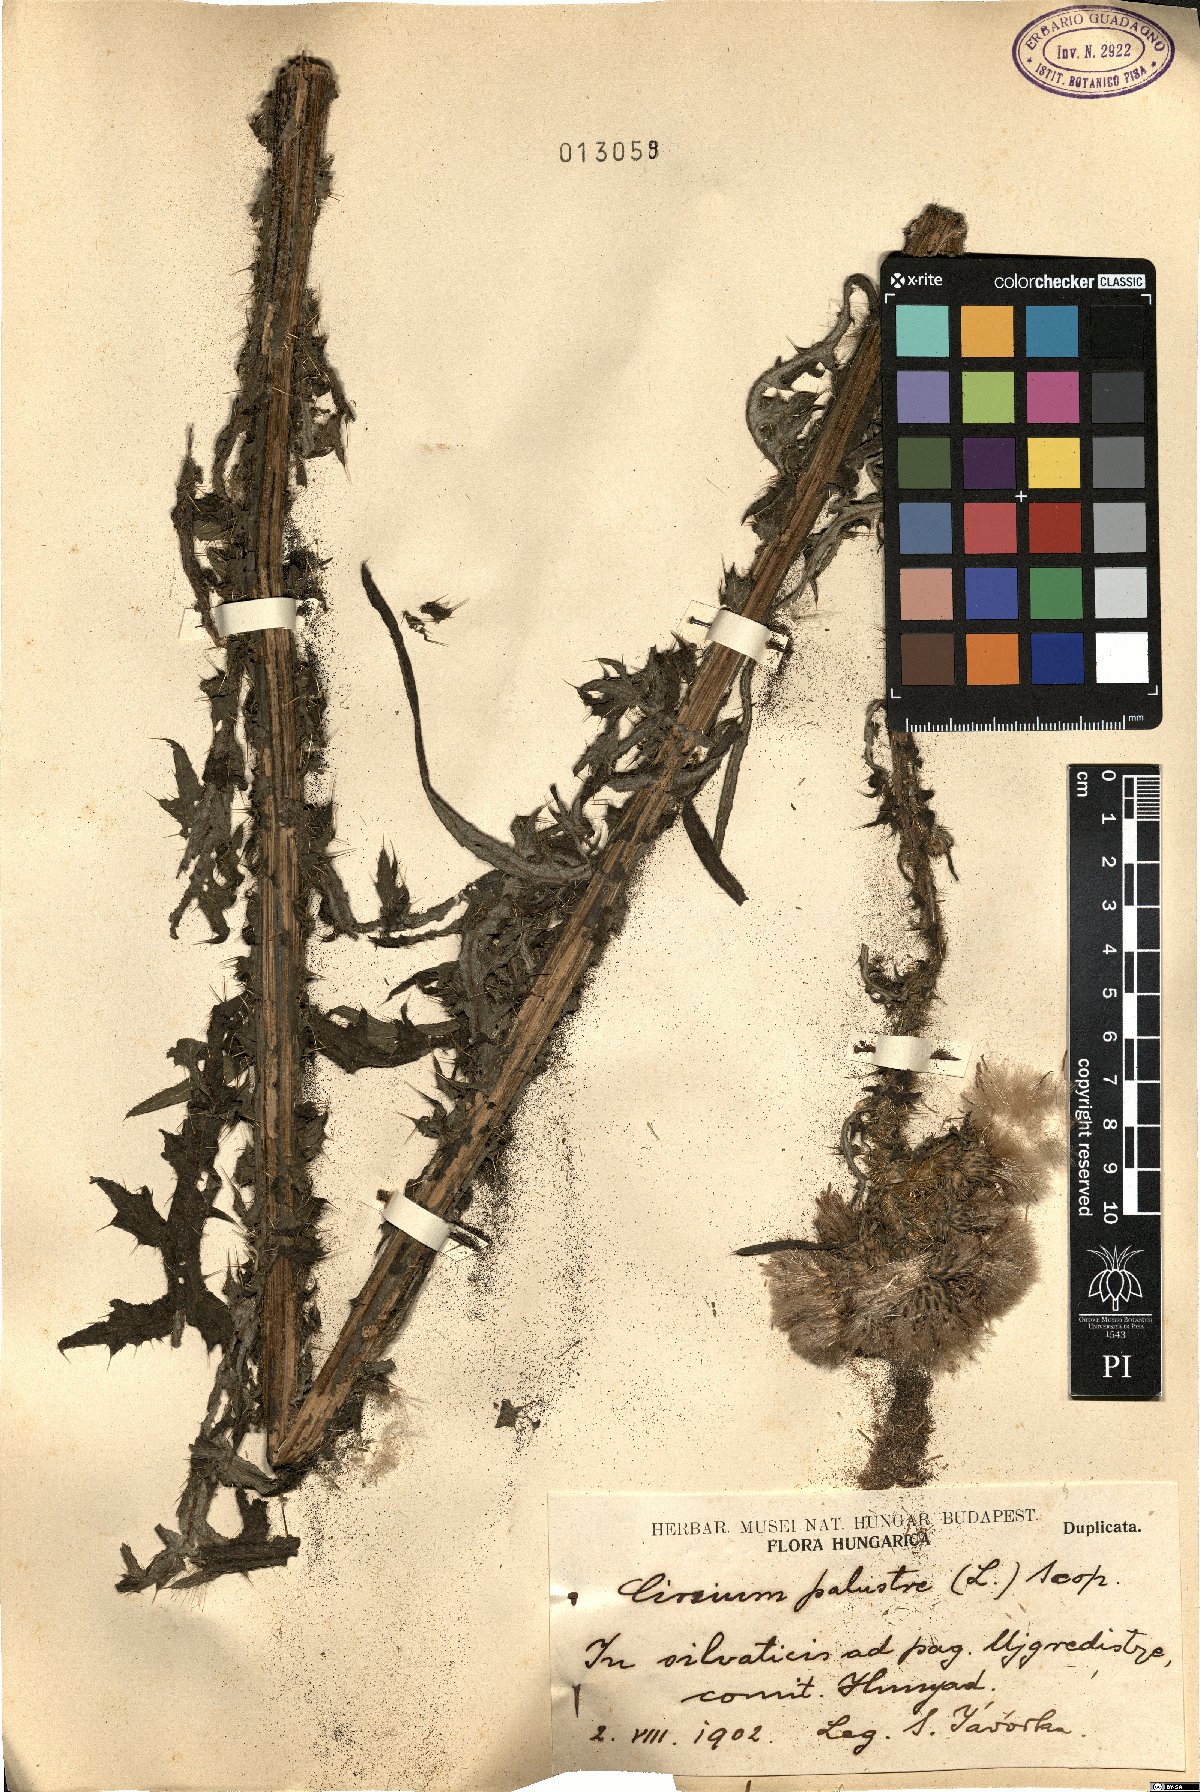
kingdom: Plantae
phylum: Tracheophyta
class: Magnoliopsida
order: Asterales
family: Asteraceae
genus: Cirsium
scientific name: Cirsium palustre
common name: Marsh thistle
